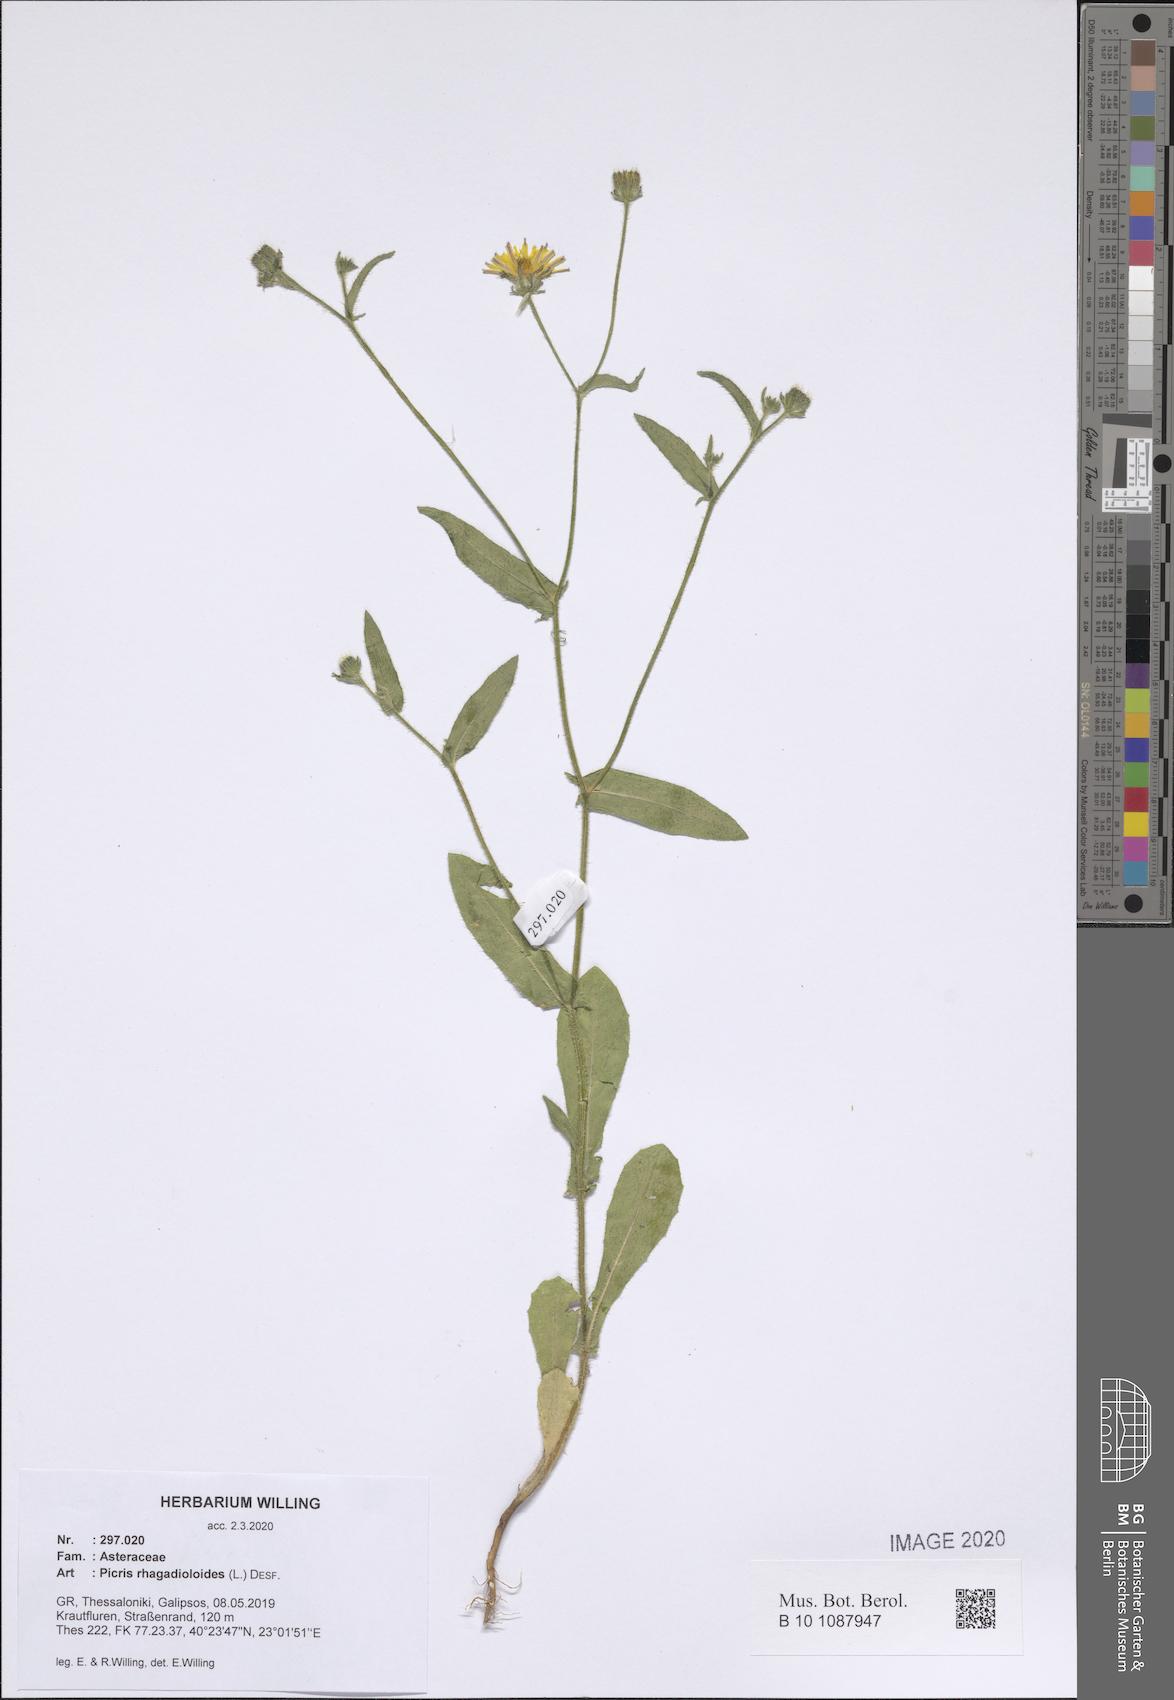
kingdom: Plantae
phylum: Tracheophyta
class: Magnoliopsida
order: Asterales
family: Asteraceae
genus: Picris
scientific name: Picris rhagadioloides
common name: Oxtongue
